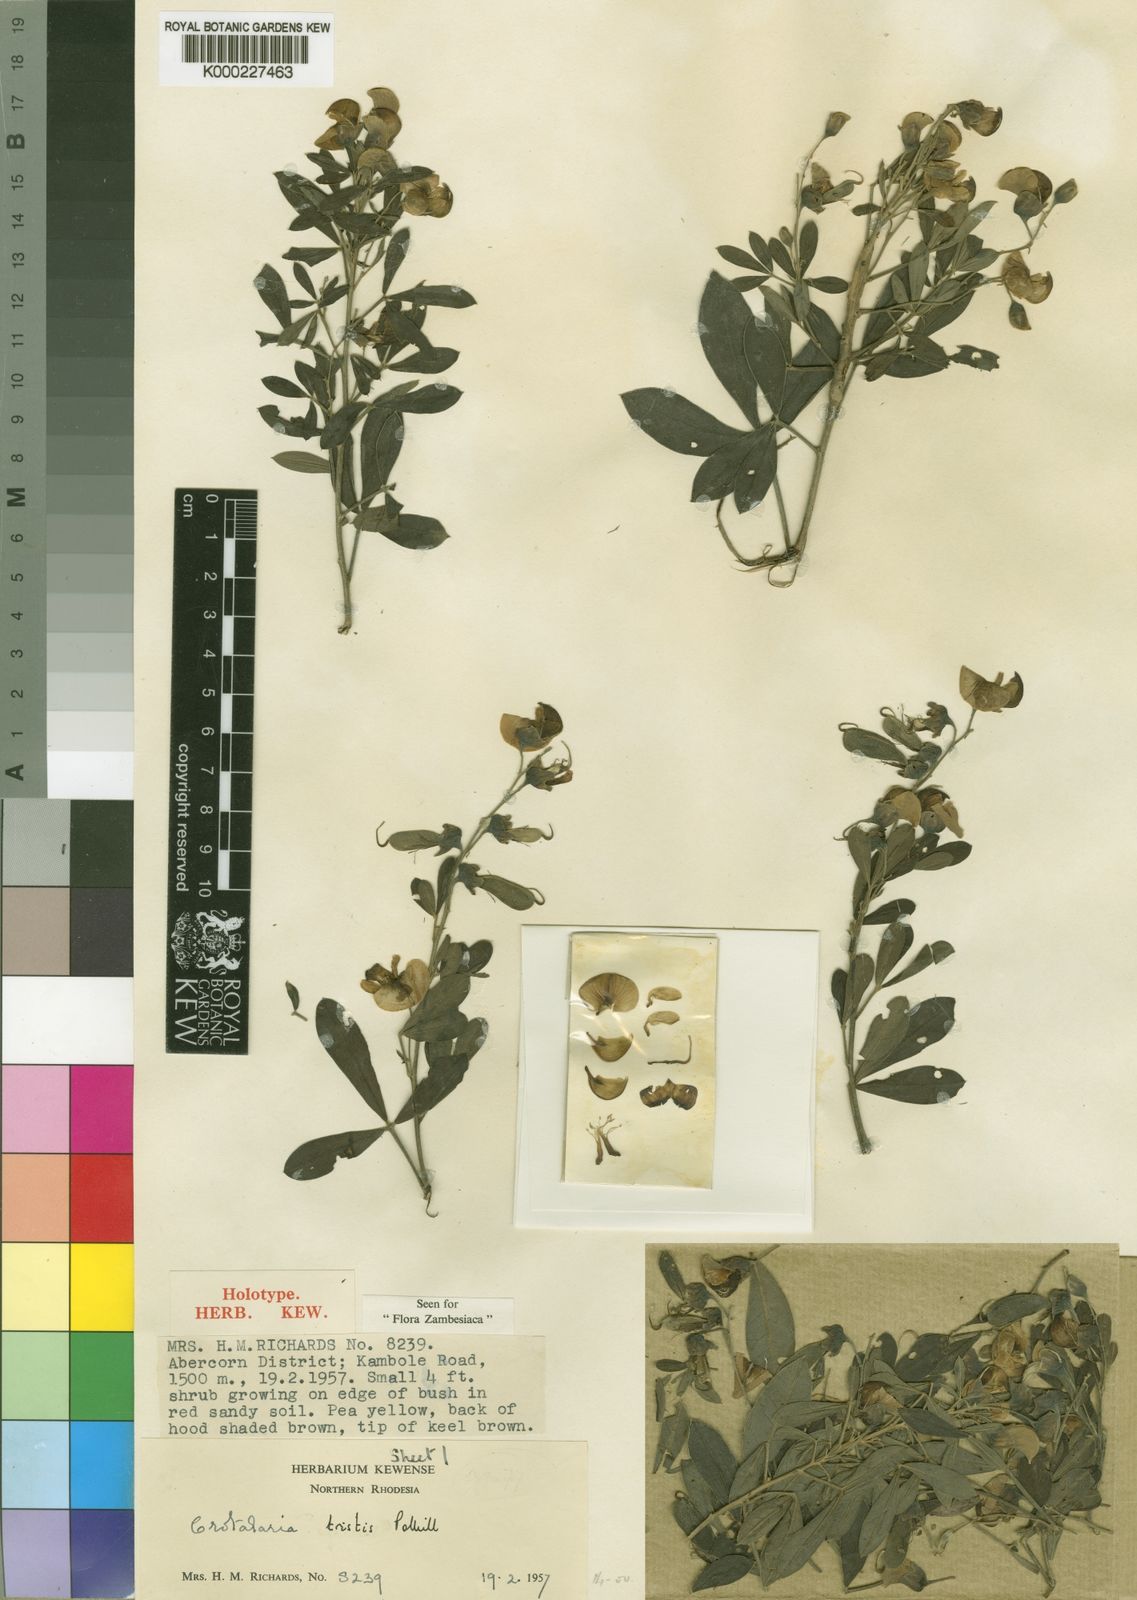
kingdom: Plantae
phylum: Tracheophyta
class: Magnoliopsida
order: Fabales
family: Fabaceae
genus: Crotalaria
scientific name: Crotalaria tristis
